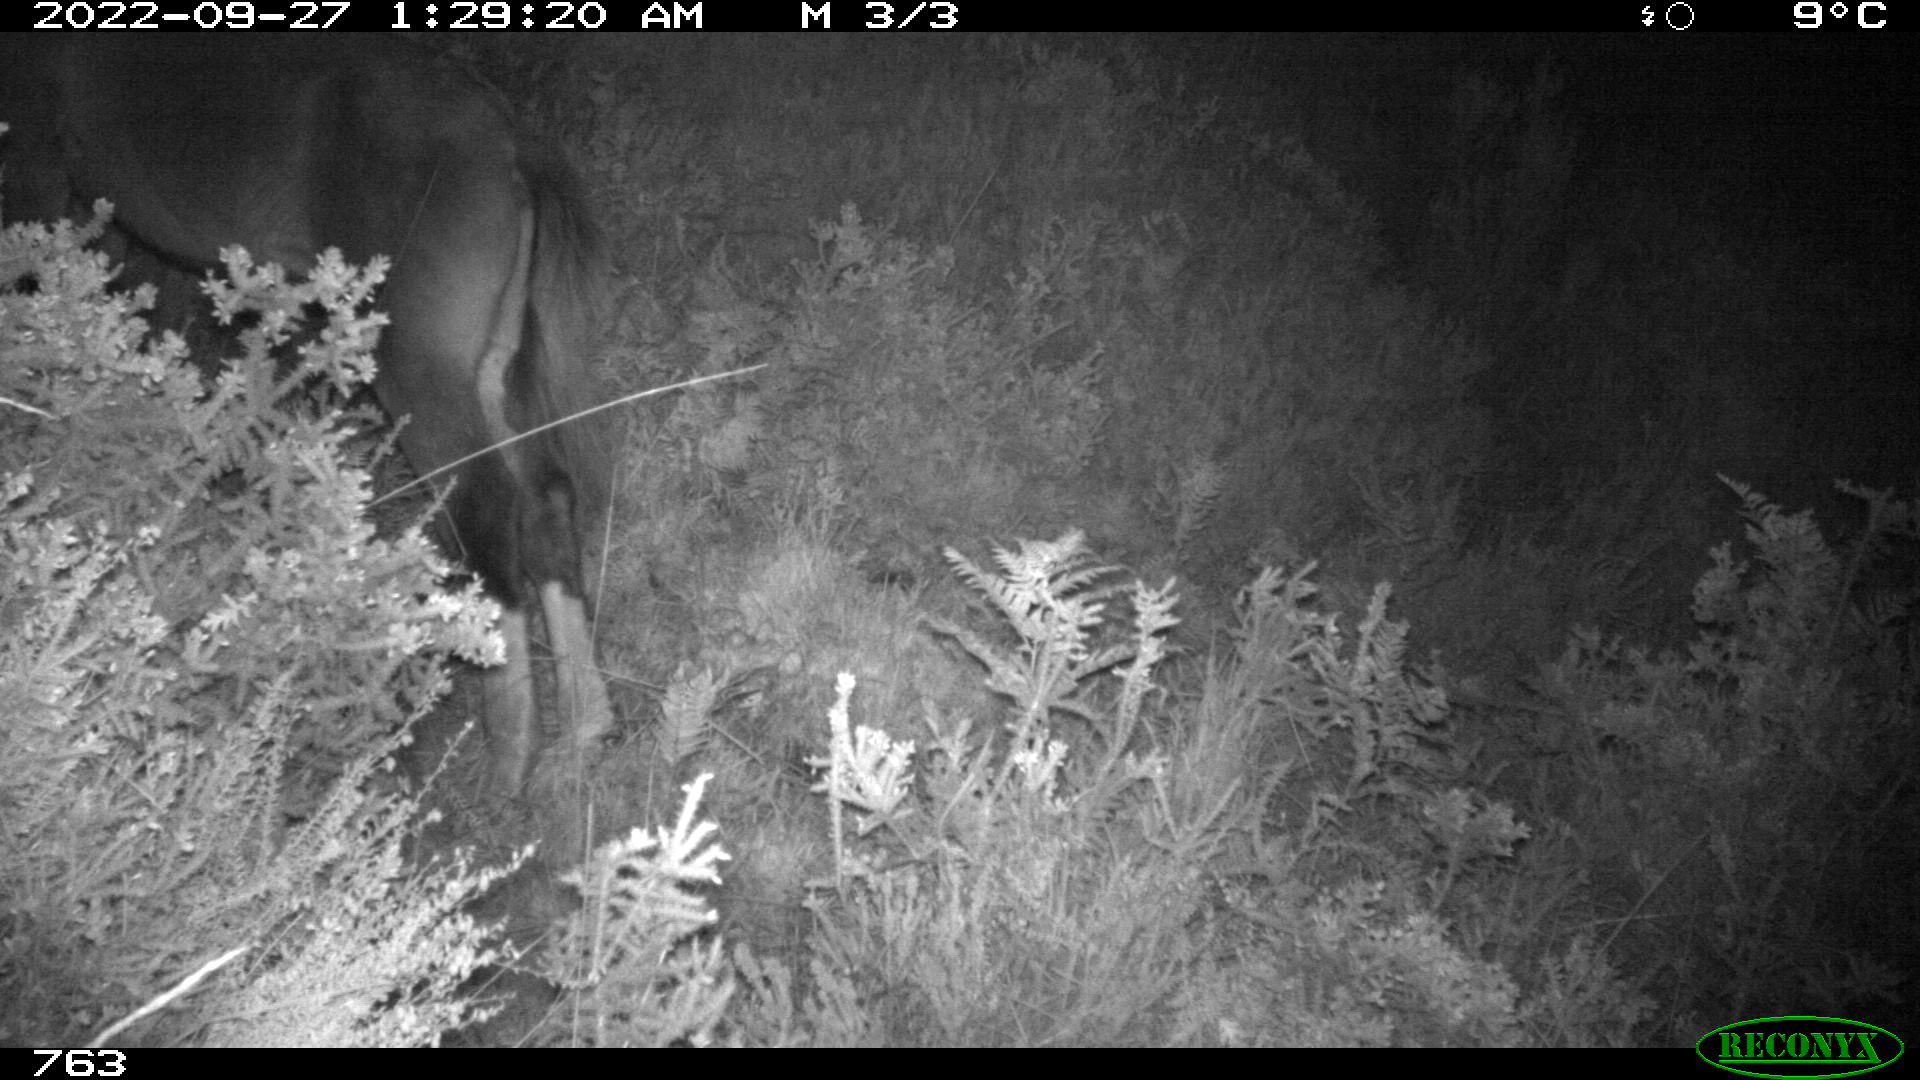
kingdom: Animalia
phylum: Chordata
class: Mammalia
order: Perissodactyla
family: Equidae
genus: Equus
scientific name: Equus caballus
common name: Horse
